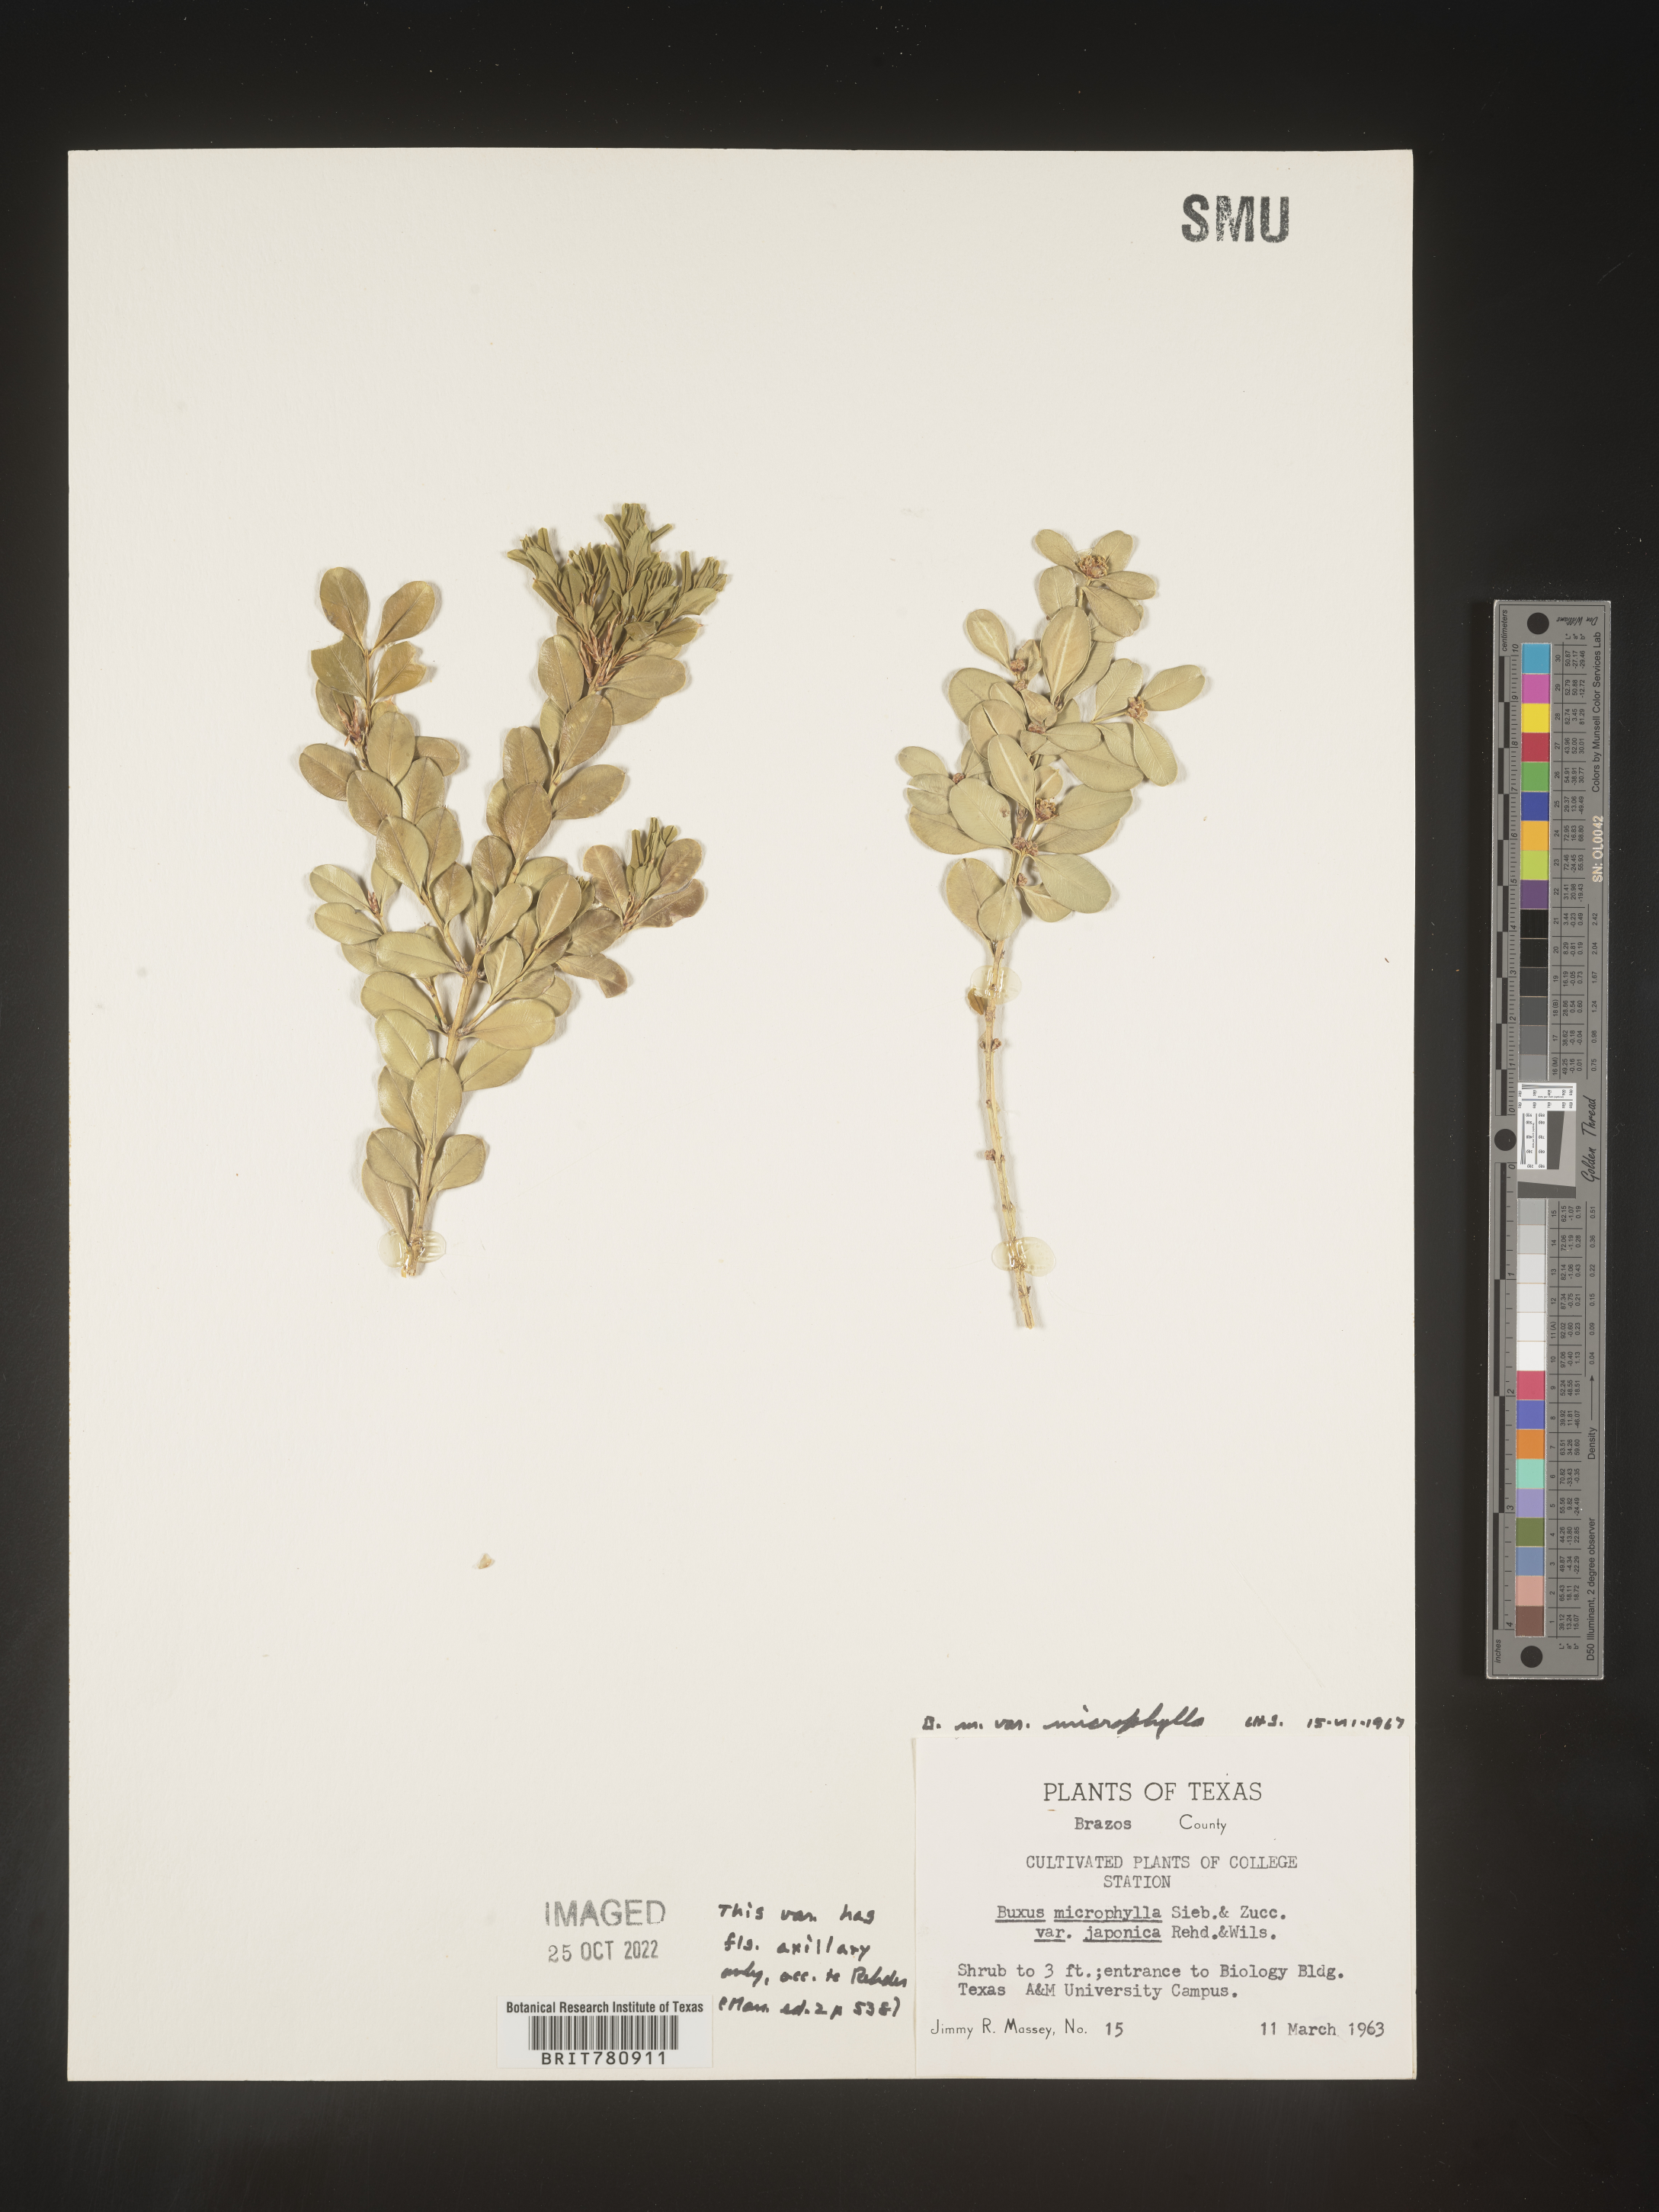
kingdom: Plantae
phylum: Tracheophyta
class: Magnoliopsida
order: Buxales
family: Buxaceae
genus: Buxus
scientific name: Buxus
